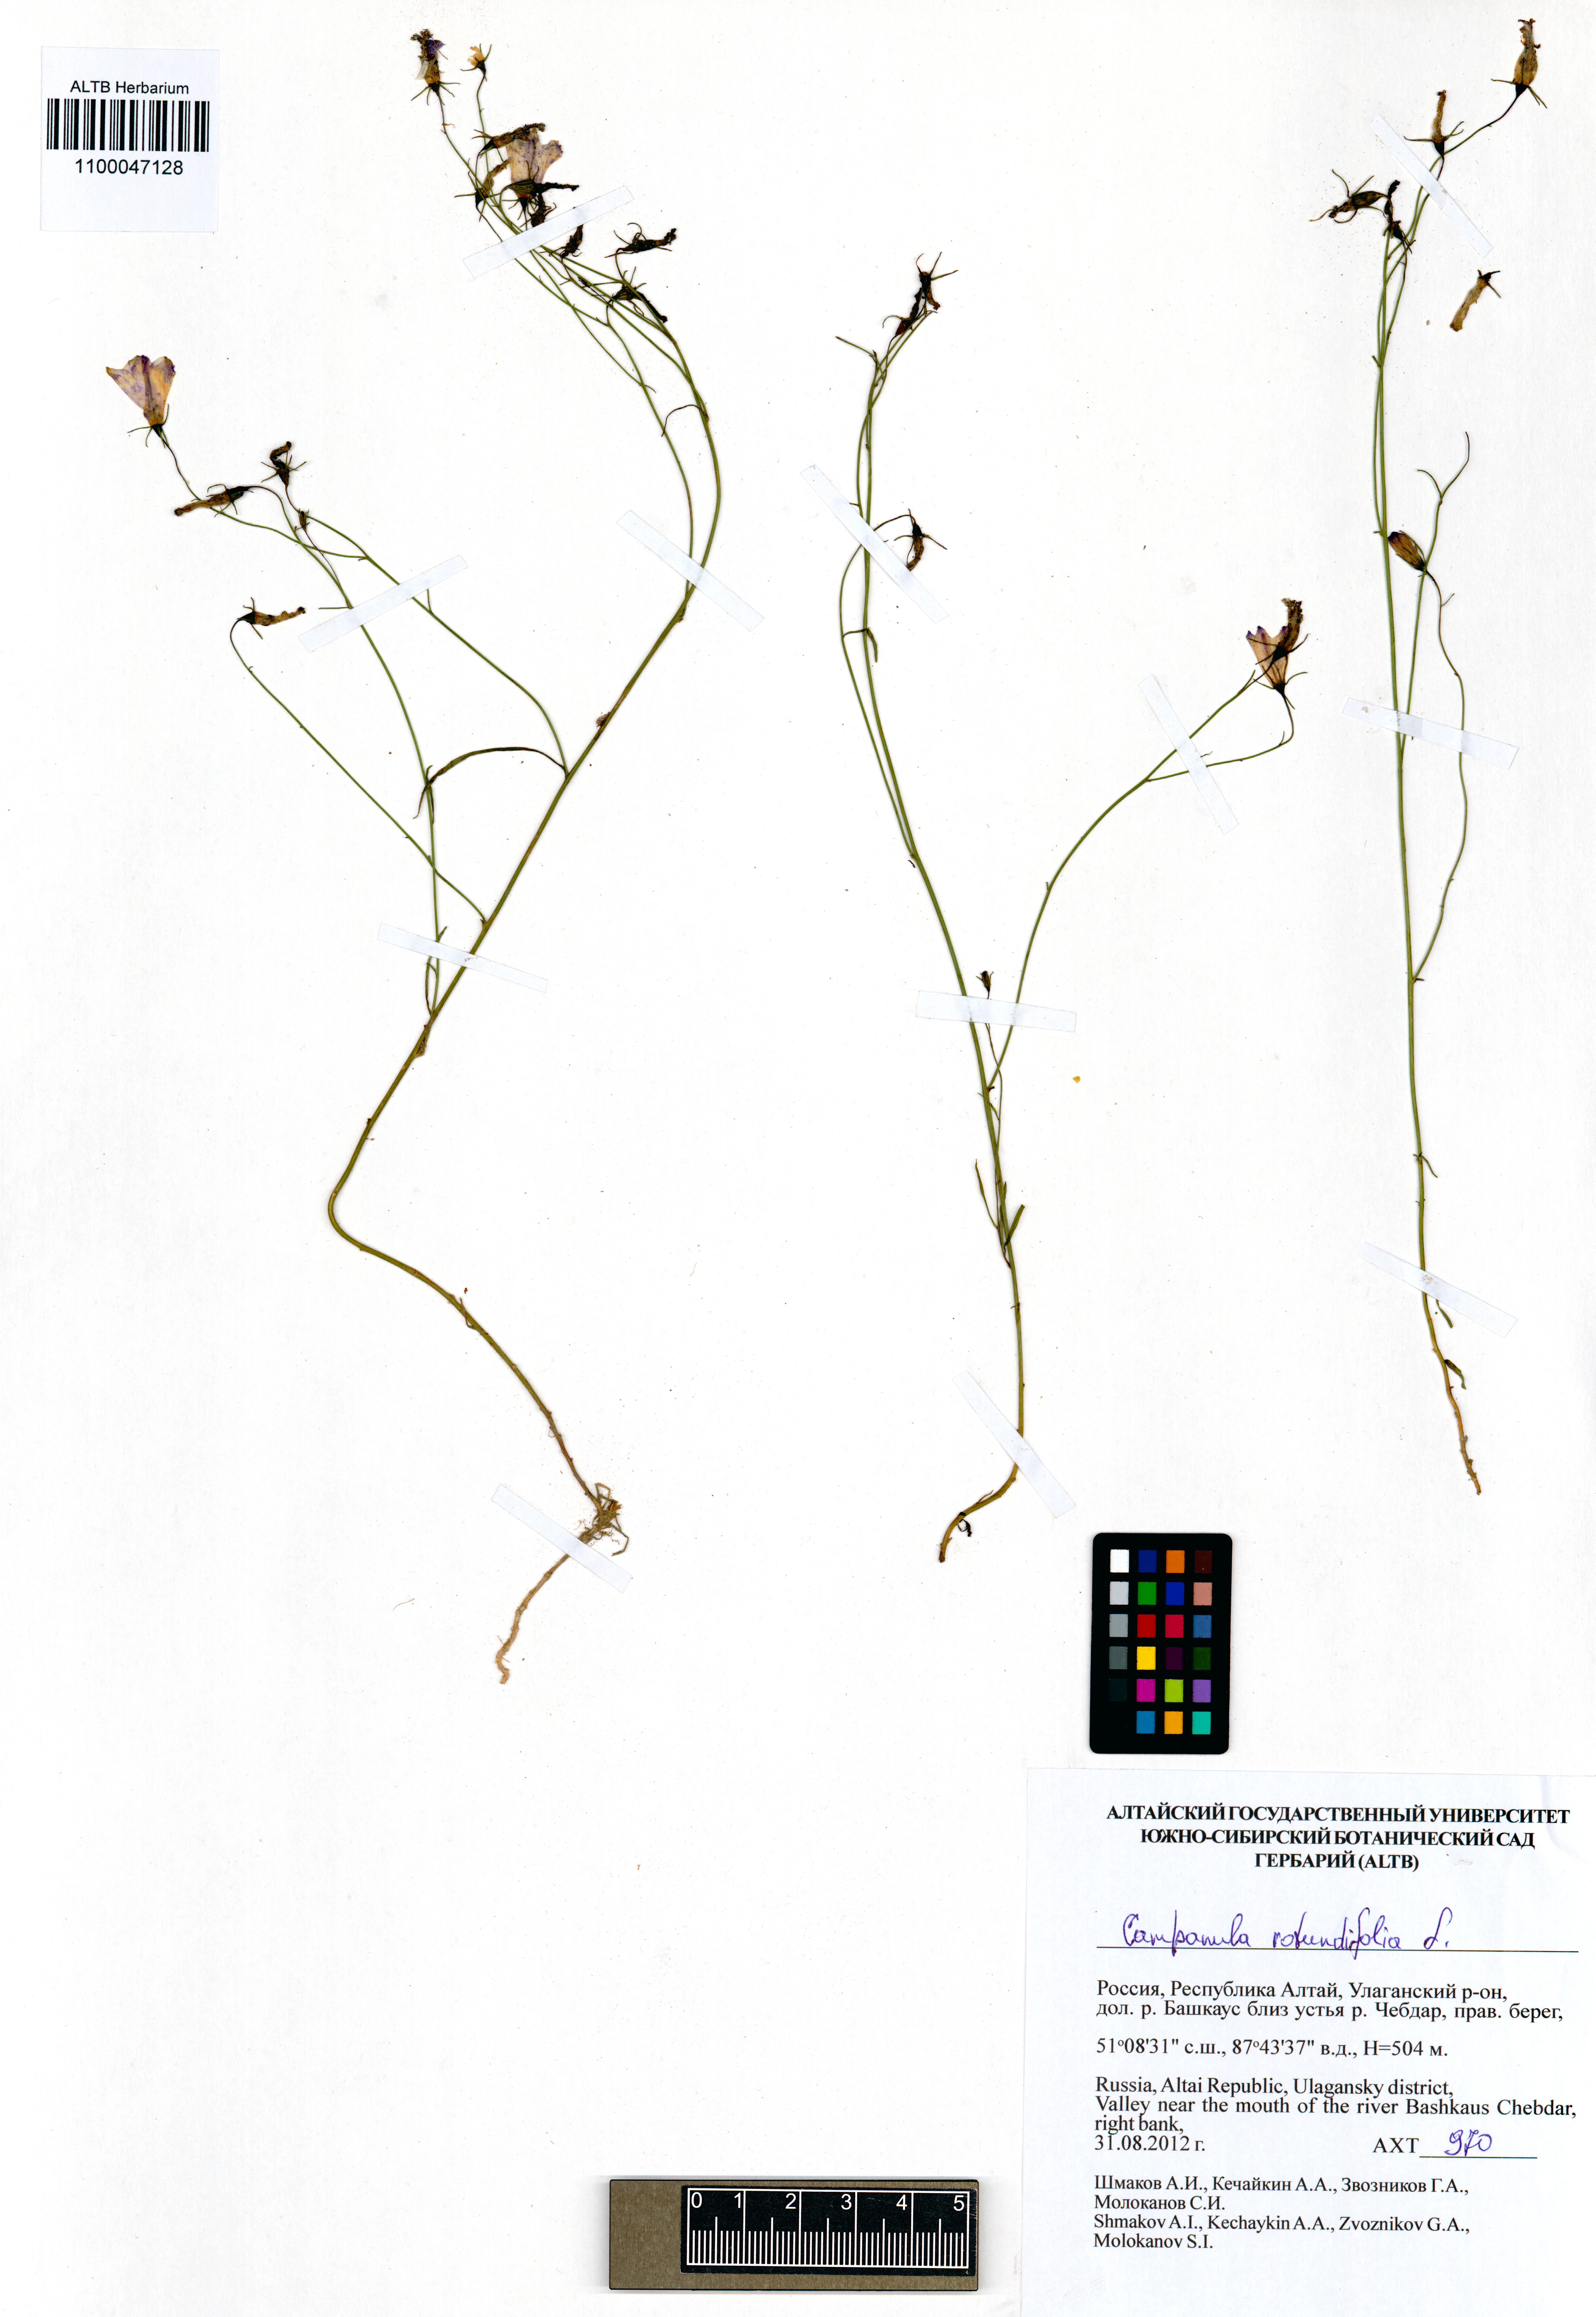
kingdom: Plantae
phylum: Tracheophyta
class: Magnoliopsida
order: Asterales
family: Campanulaceae
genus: Campanula
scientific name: Campanula rotundifolia
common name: Harebell
